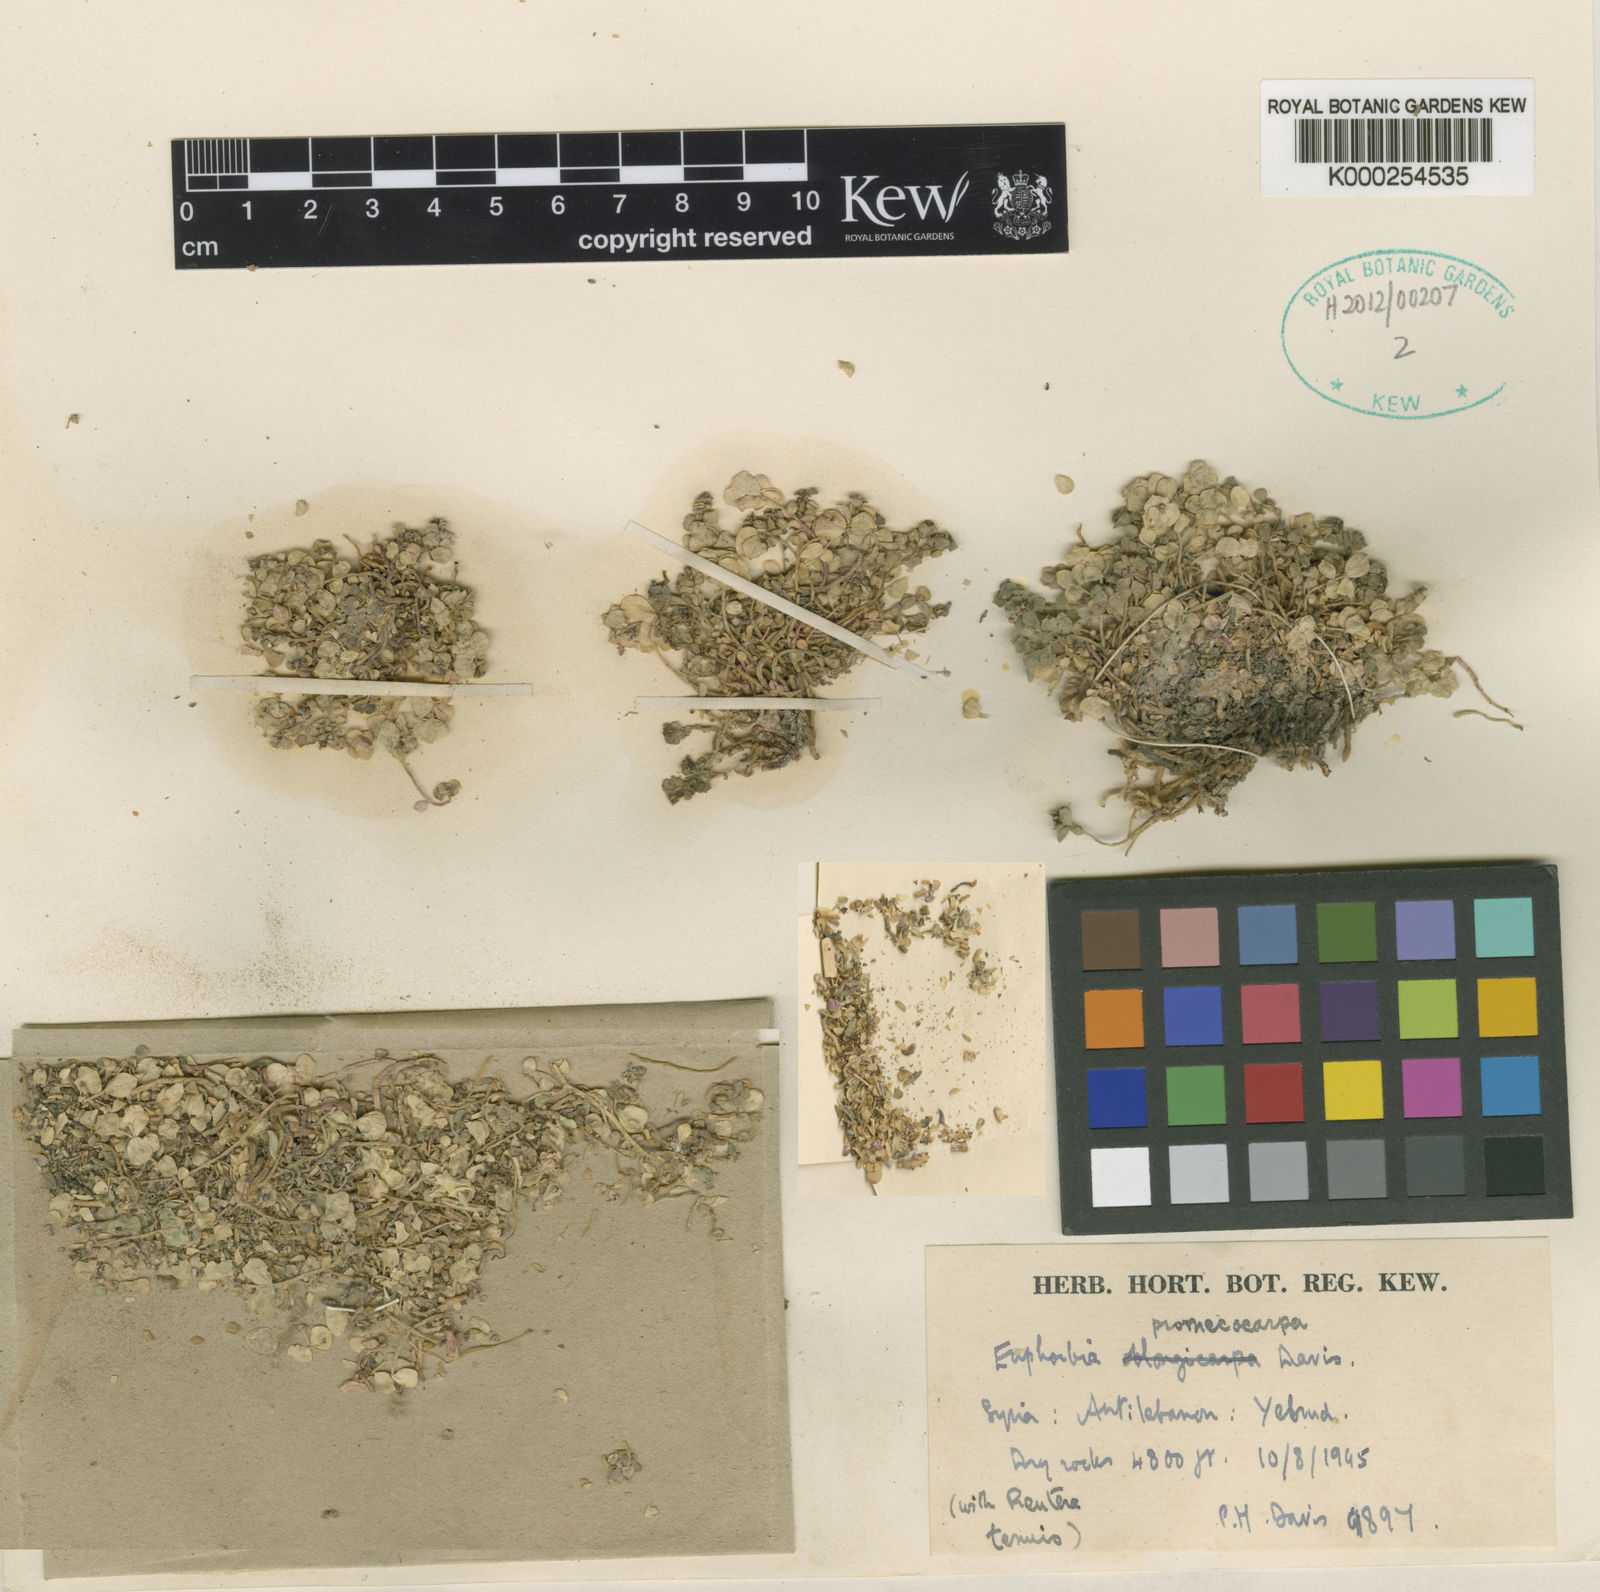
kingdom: Plantae
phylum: Tracheophyta
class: Magnoliopsida
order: Malpighiales
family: Euphorbiaceae
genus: Euphorbia
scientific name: Euphorbia promecocarpa
